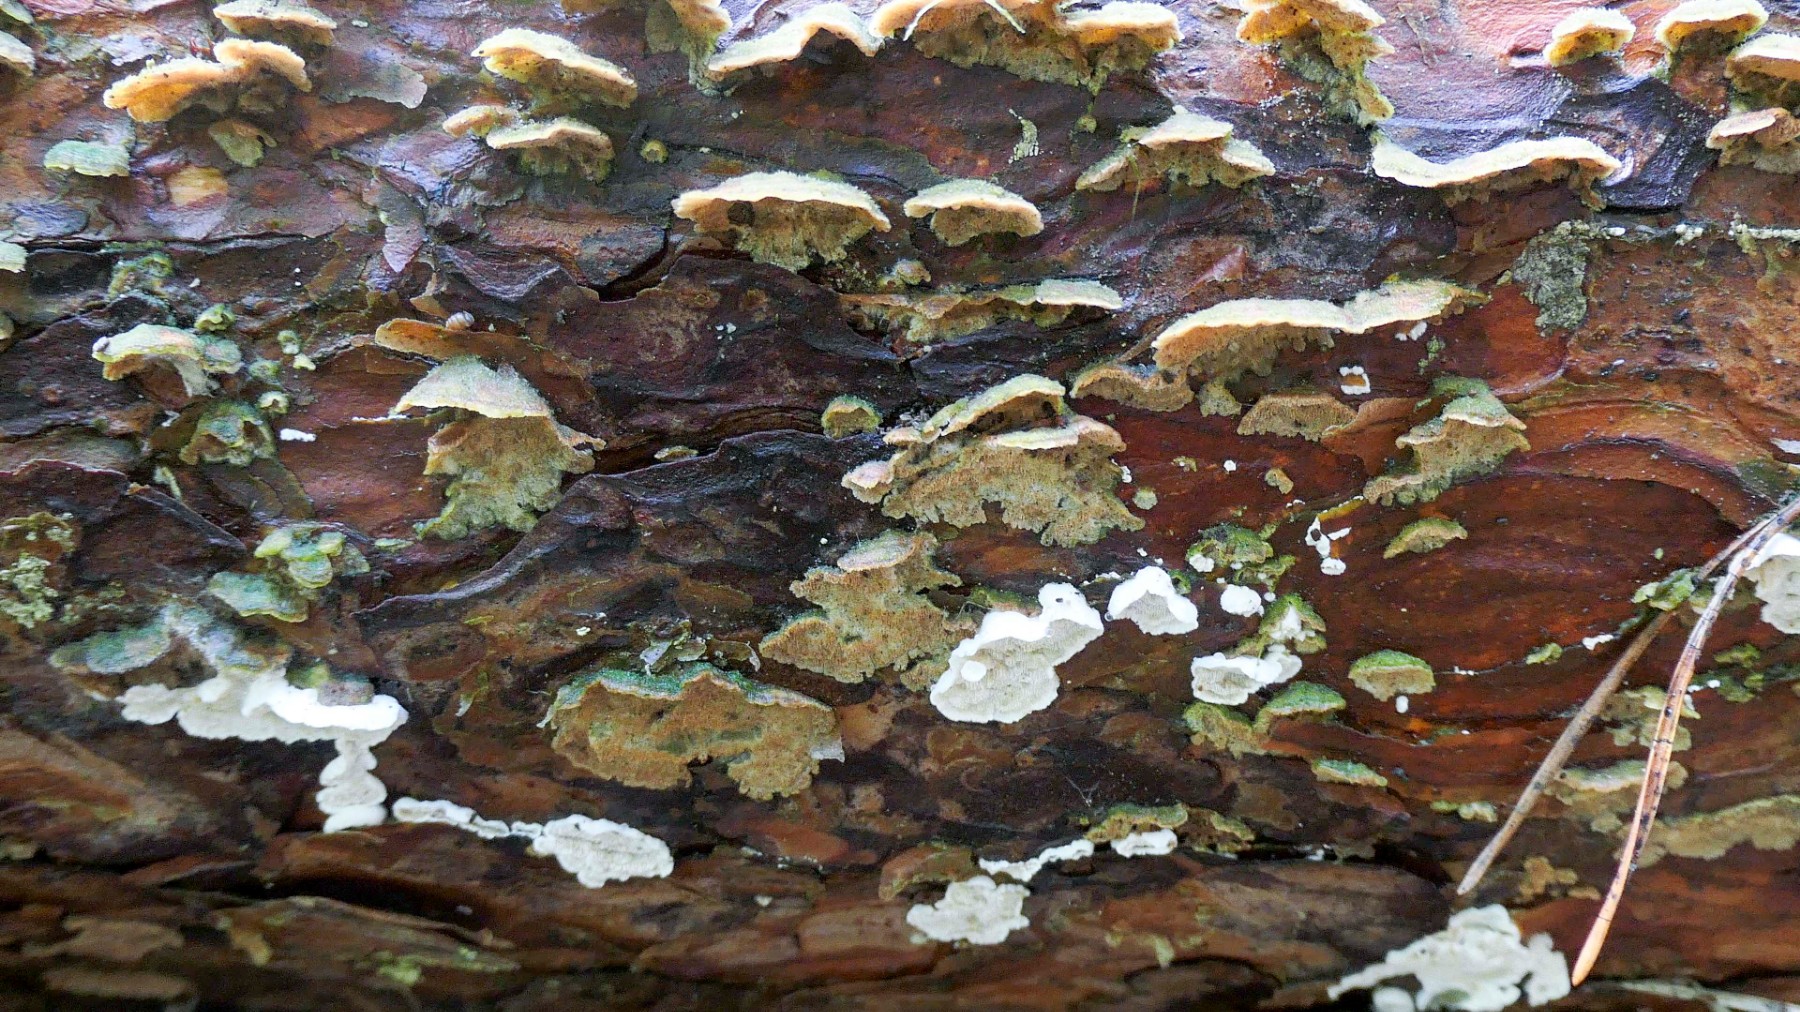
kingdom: Fungi
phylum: Basidiomycota
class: Agaricomycetes
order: Polyporales
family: Incrustoporiaceae
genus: Skeletocutis
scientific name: Skeletocutis carneogrisea
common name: rødgrå krystalporesvamp
